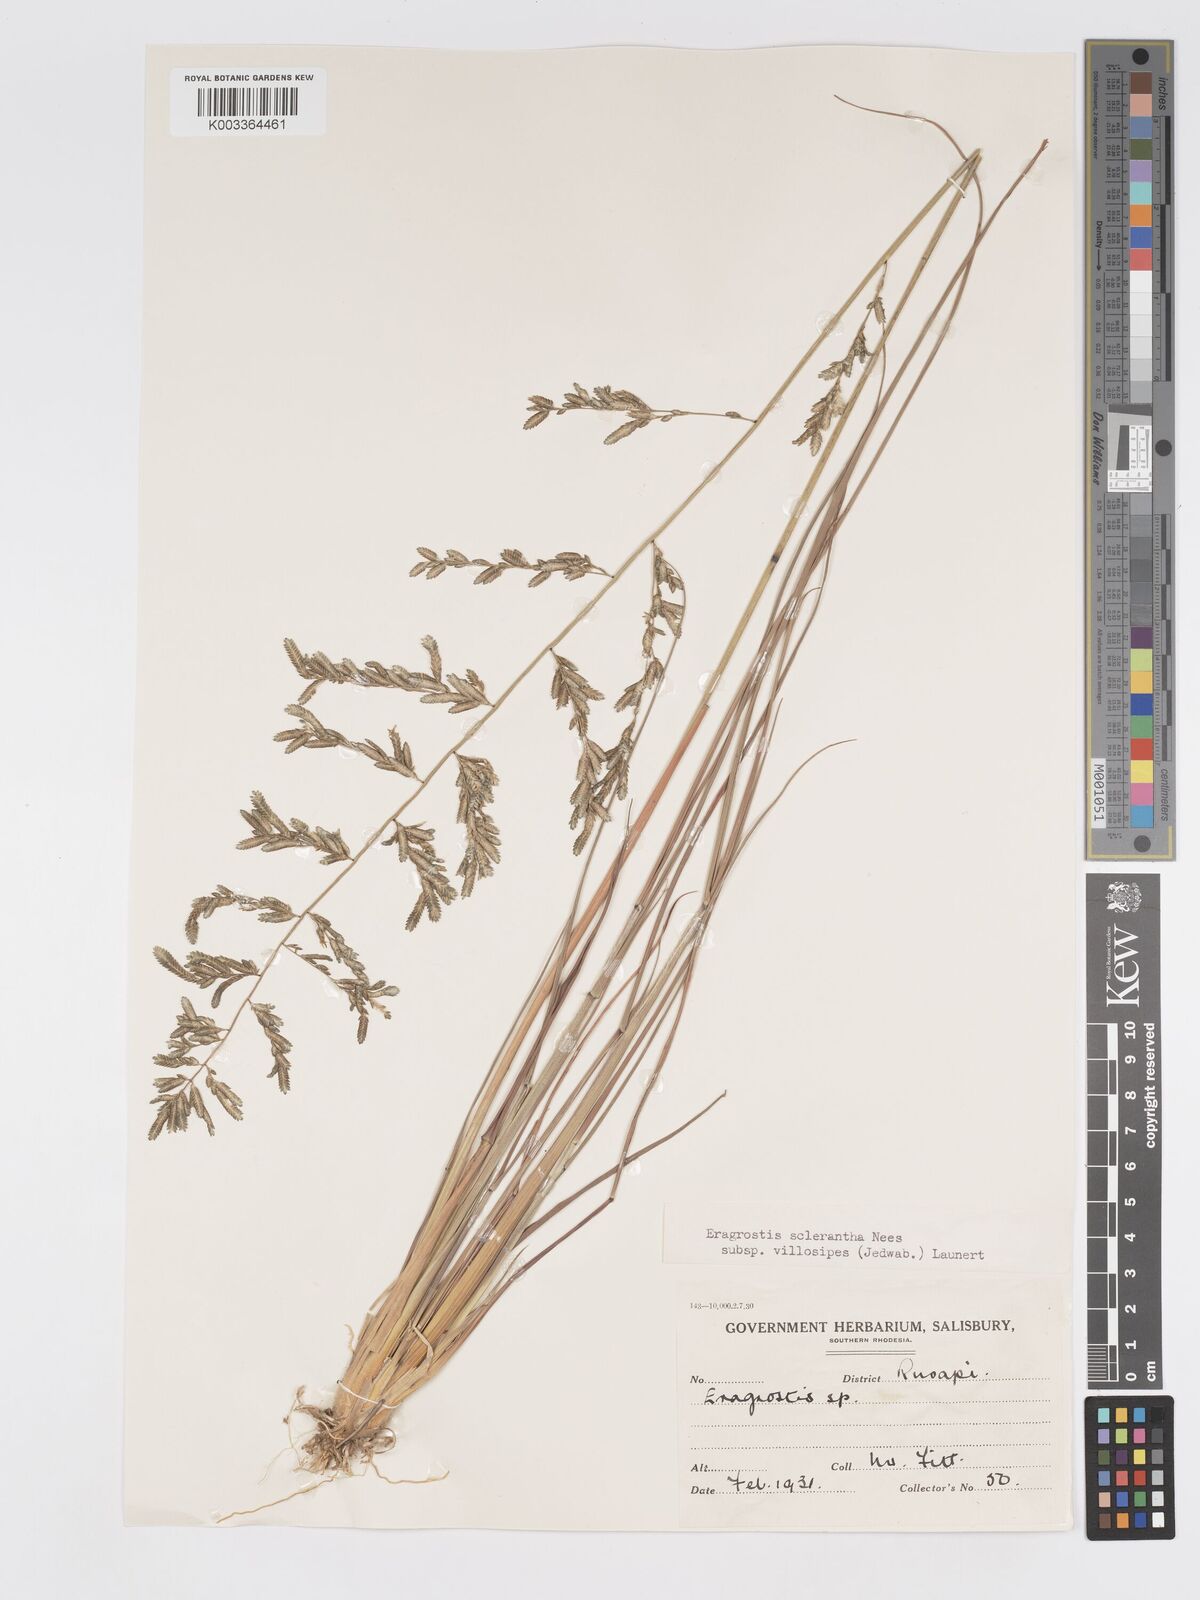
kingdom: Plantae
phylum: Tracheophyta
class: Liliopsida
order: Poales
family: Poaceae
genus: Eragrostis
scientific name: Eragrostis sclerantha
